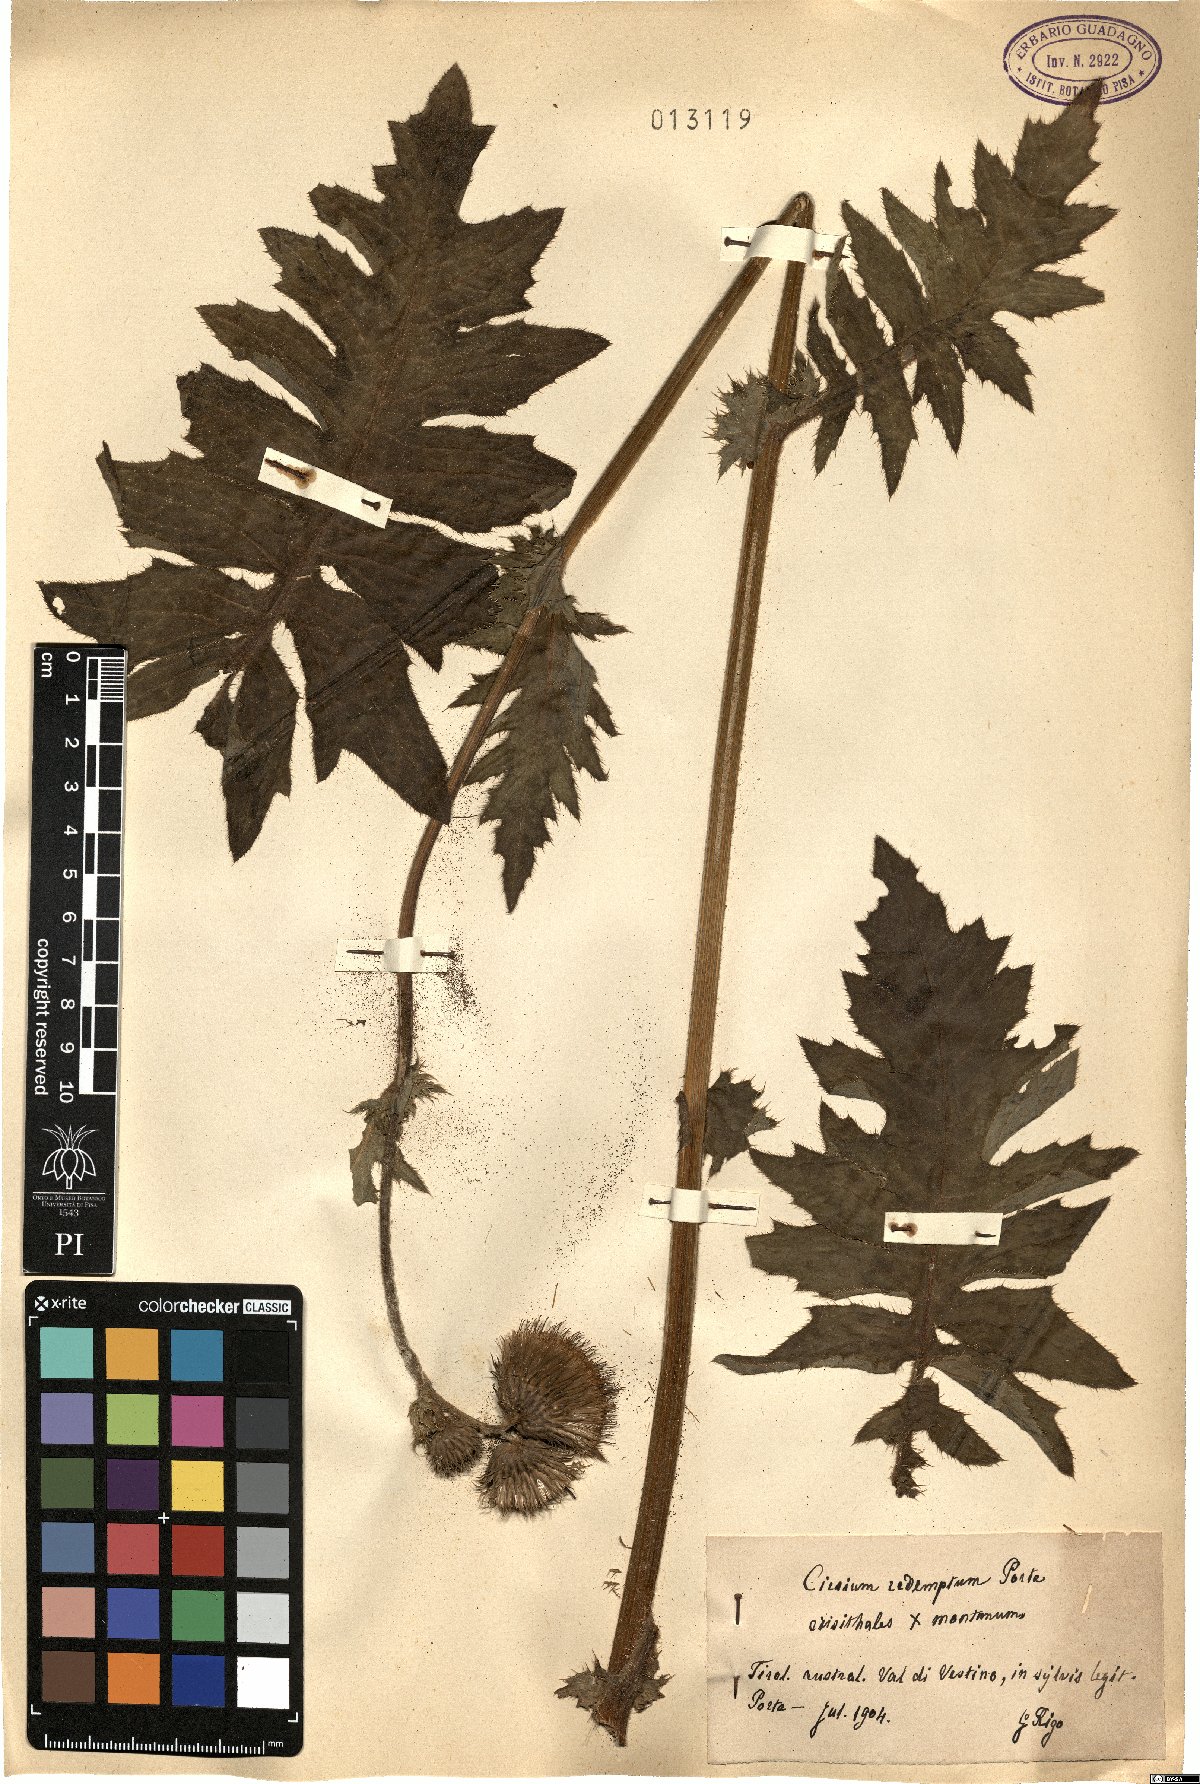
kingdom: Plantae
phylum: Tracheophyta
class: Magnoliopsida
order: Asterales
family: Asteraceae
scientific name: Asteraceae
